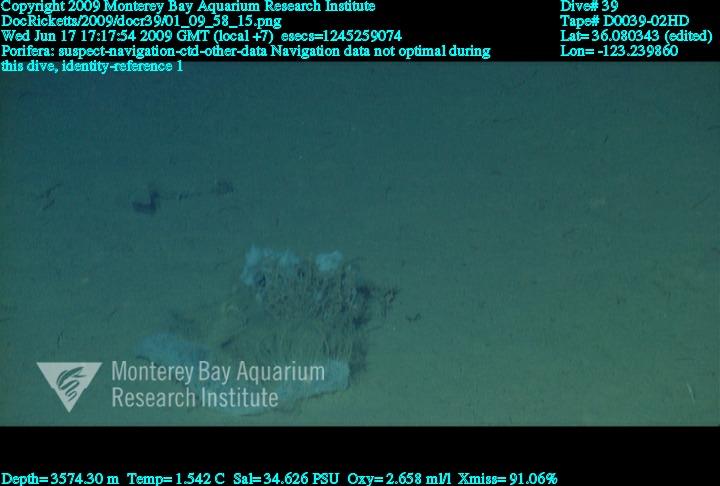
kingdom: Animalia
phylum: Porifera
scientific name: Porifera
